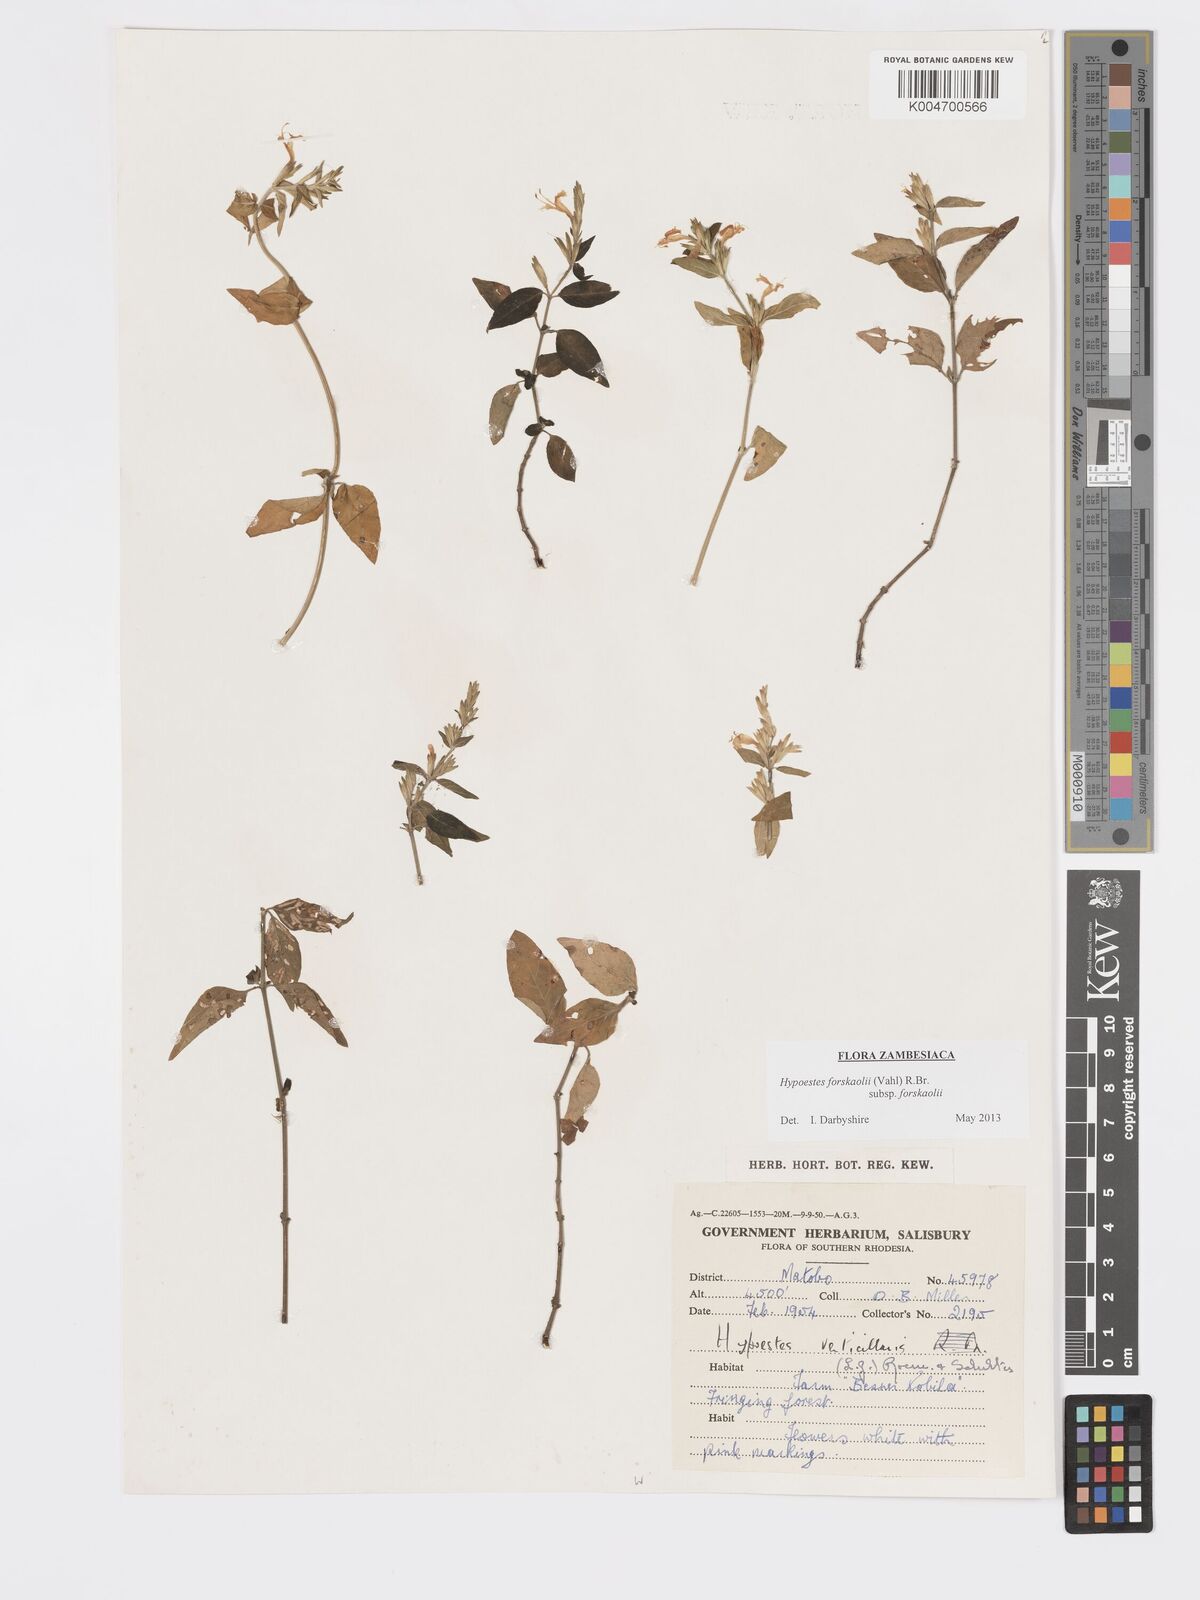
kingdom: Plantae
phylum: Tracheophyta
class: Magnoliopsida
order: Lamiales
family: Acanthaceae
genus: Hypoestes
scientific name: Hypoestes forskaolii
